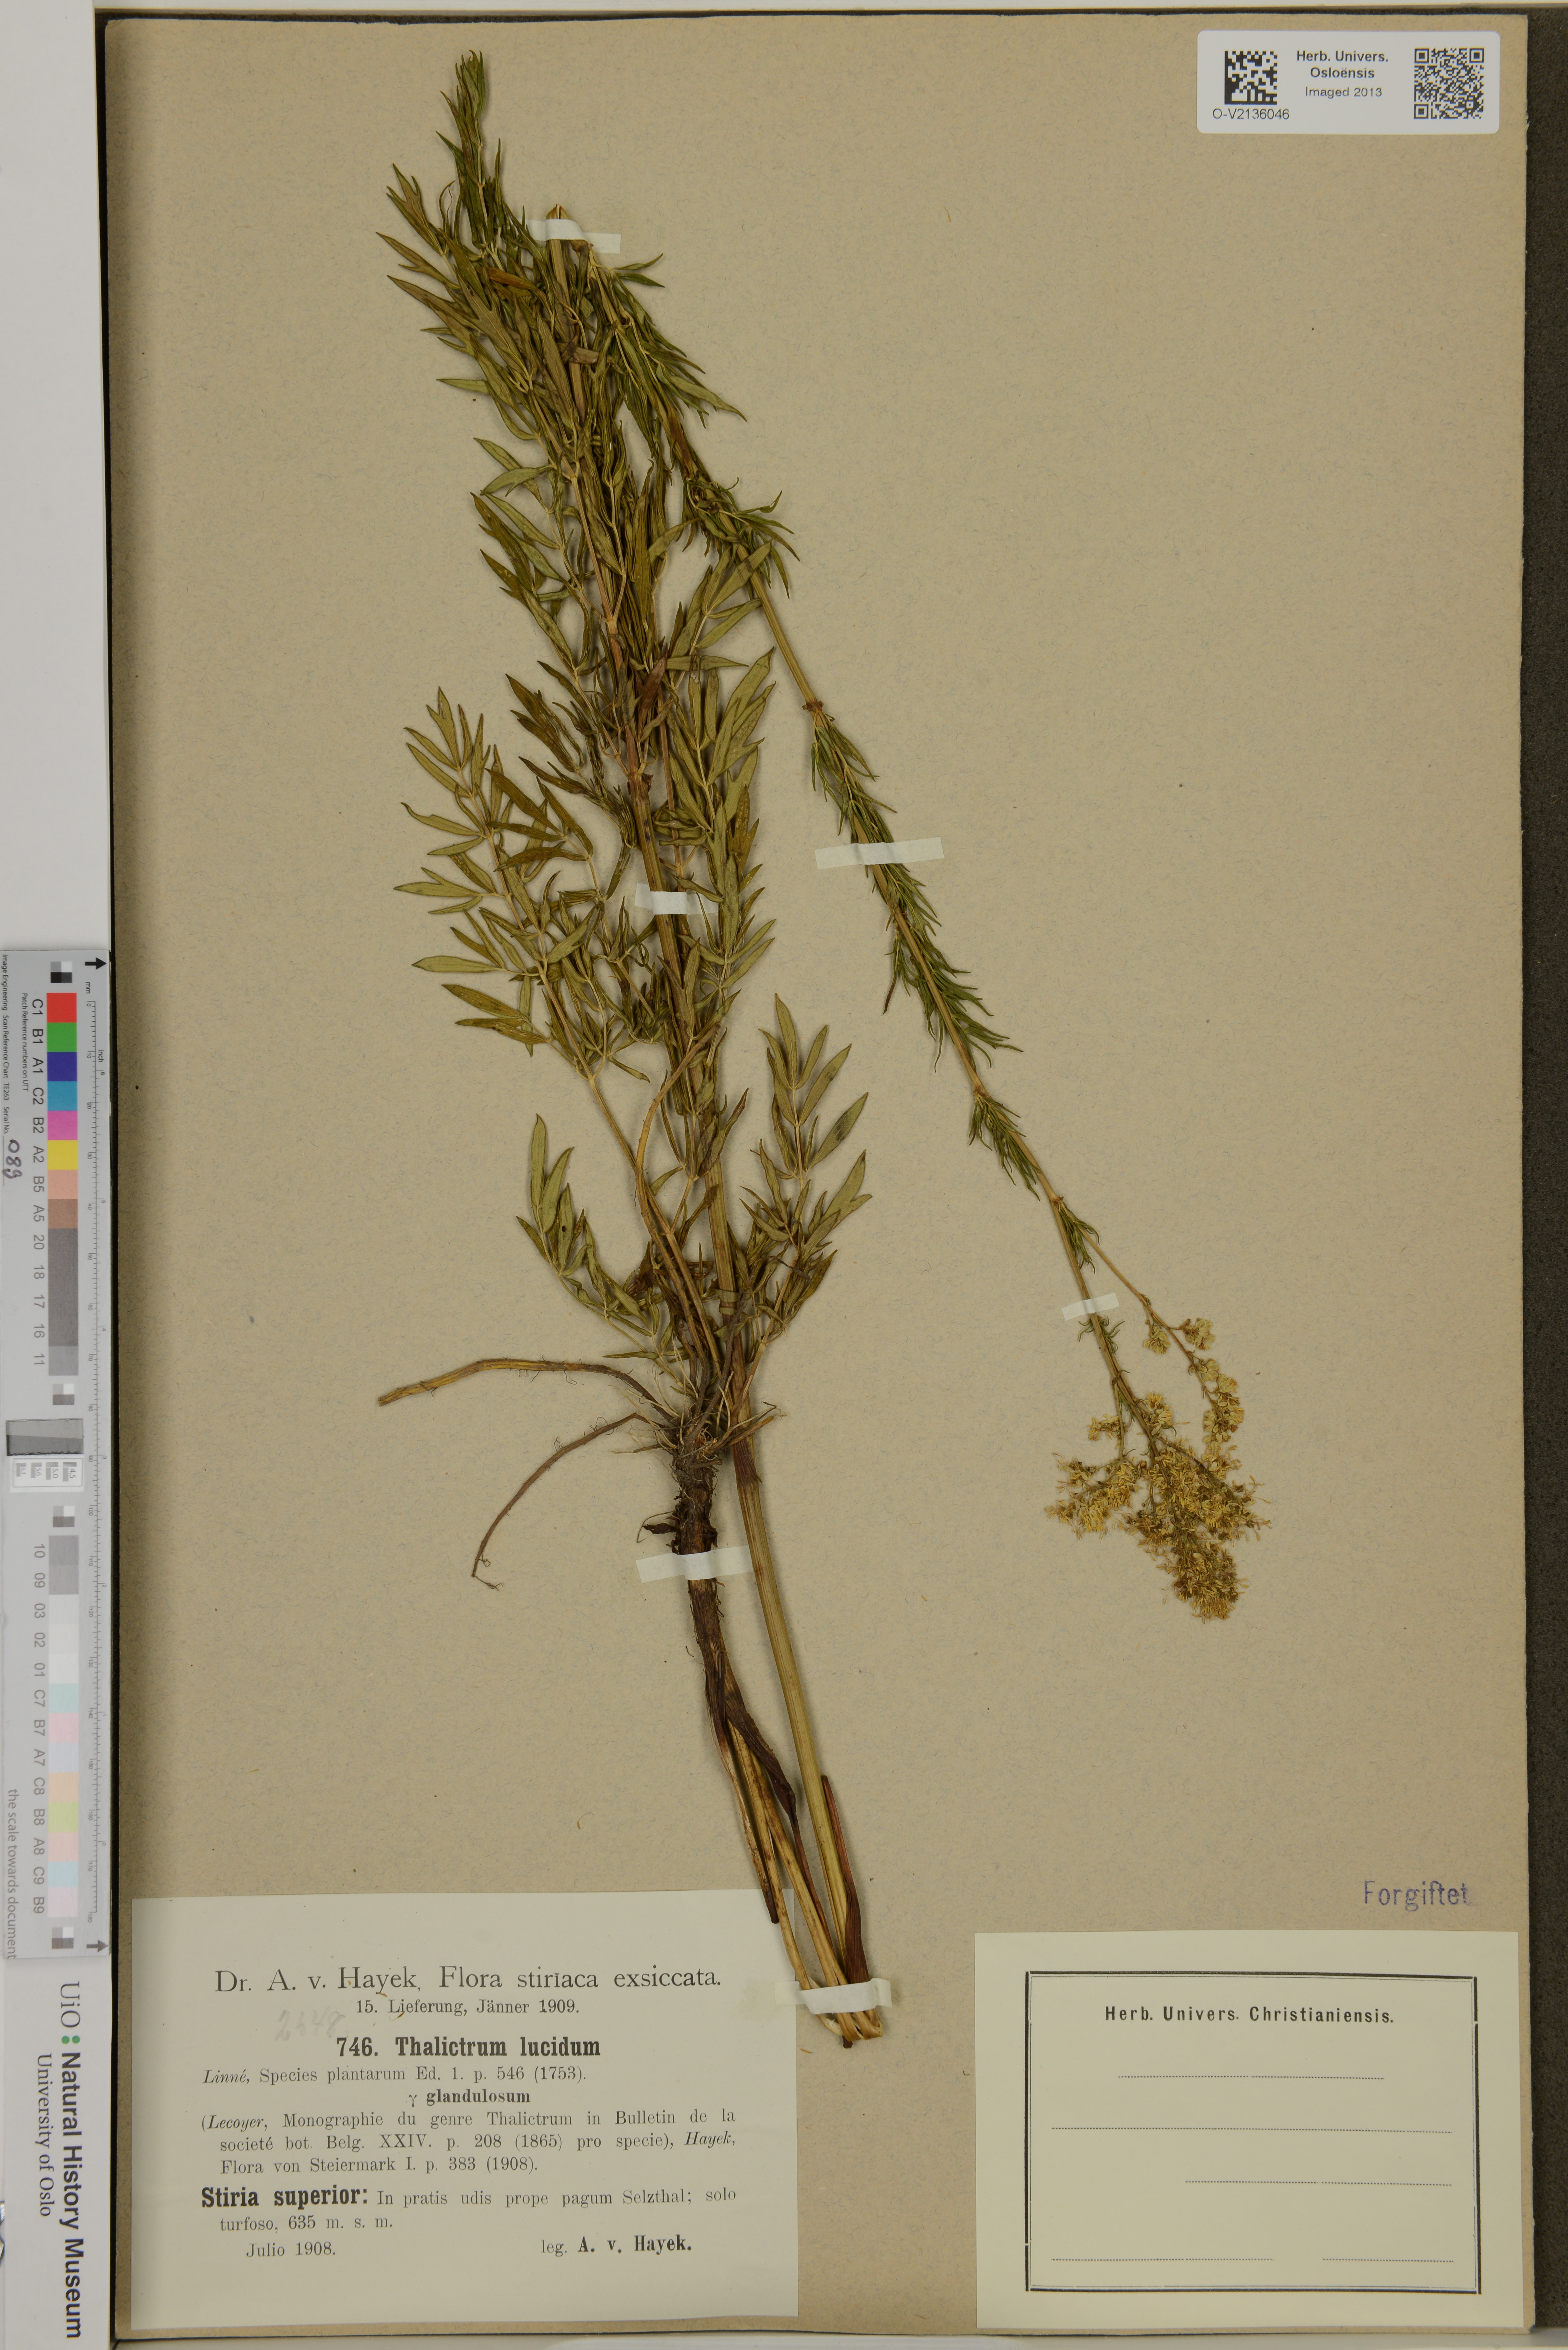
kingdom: Plantae
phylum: Tracheophyta
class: Magnoliopsida
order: Ranunculales
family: Ranunculaceae
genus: Thalictrum
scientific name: Thalictrum lucidum
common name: Shining meadow-rue
